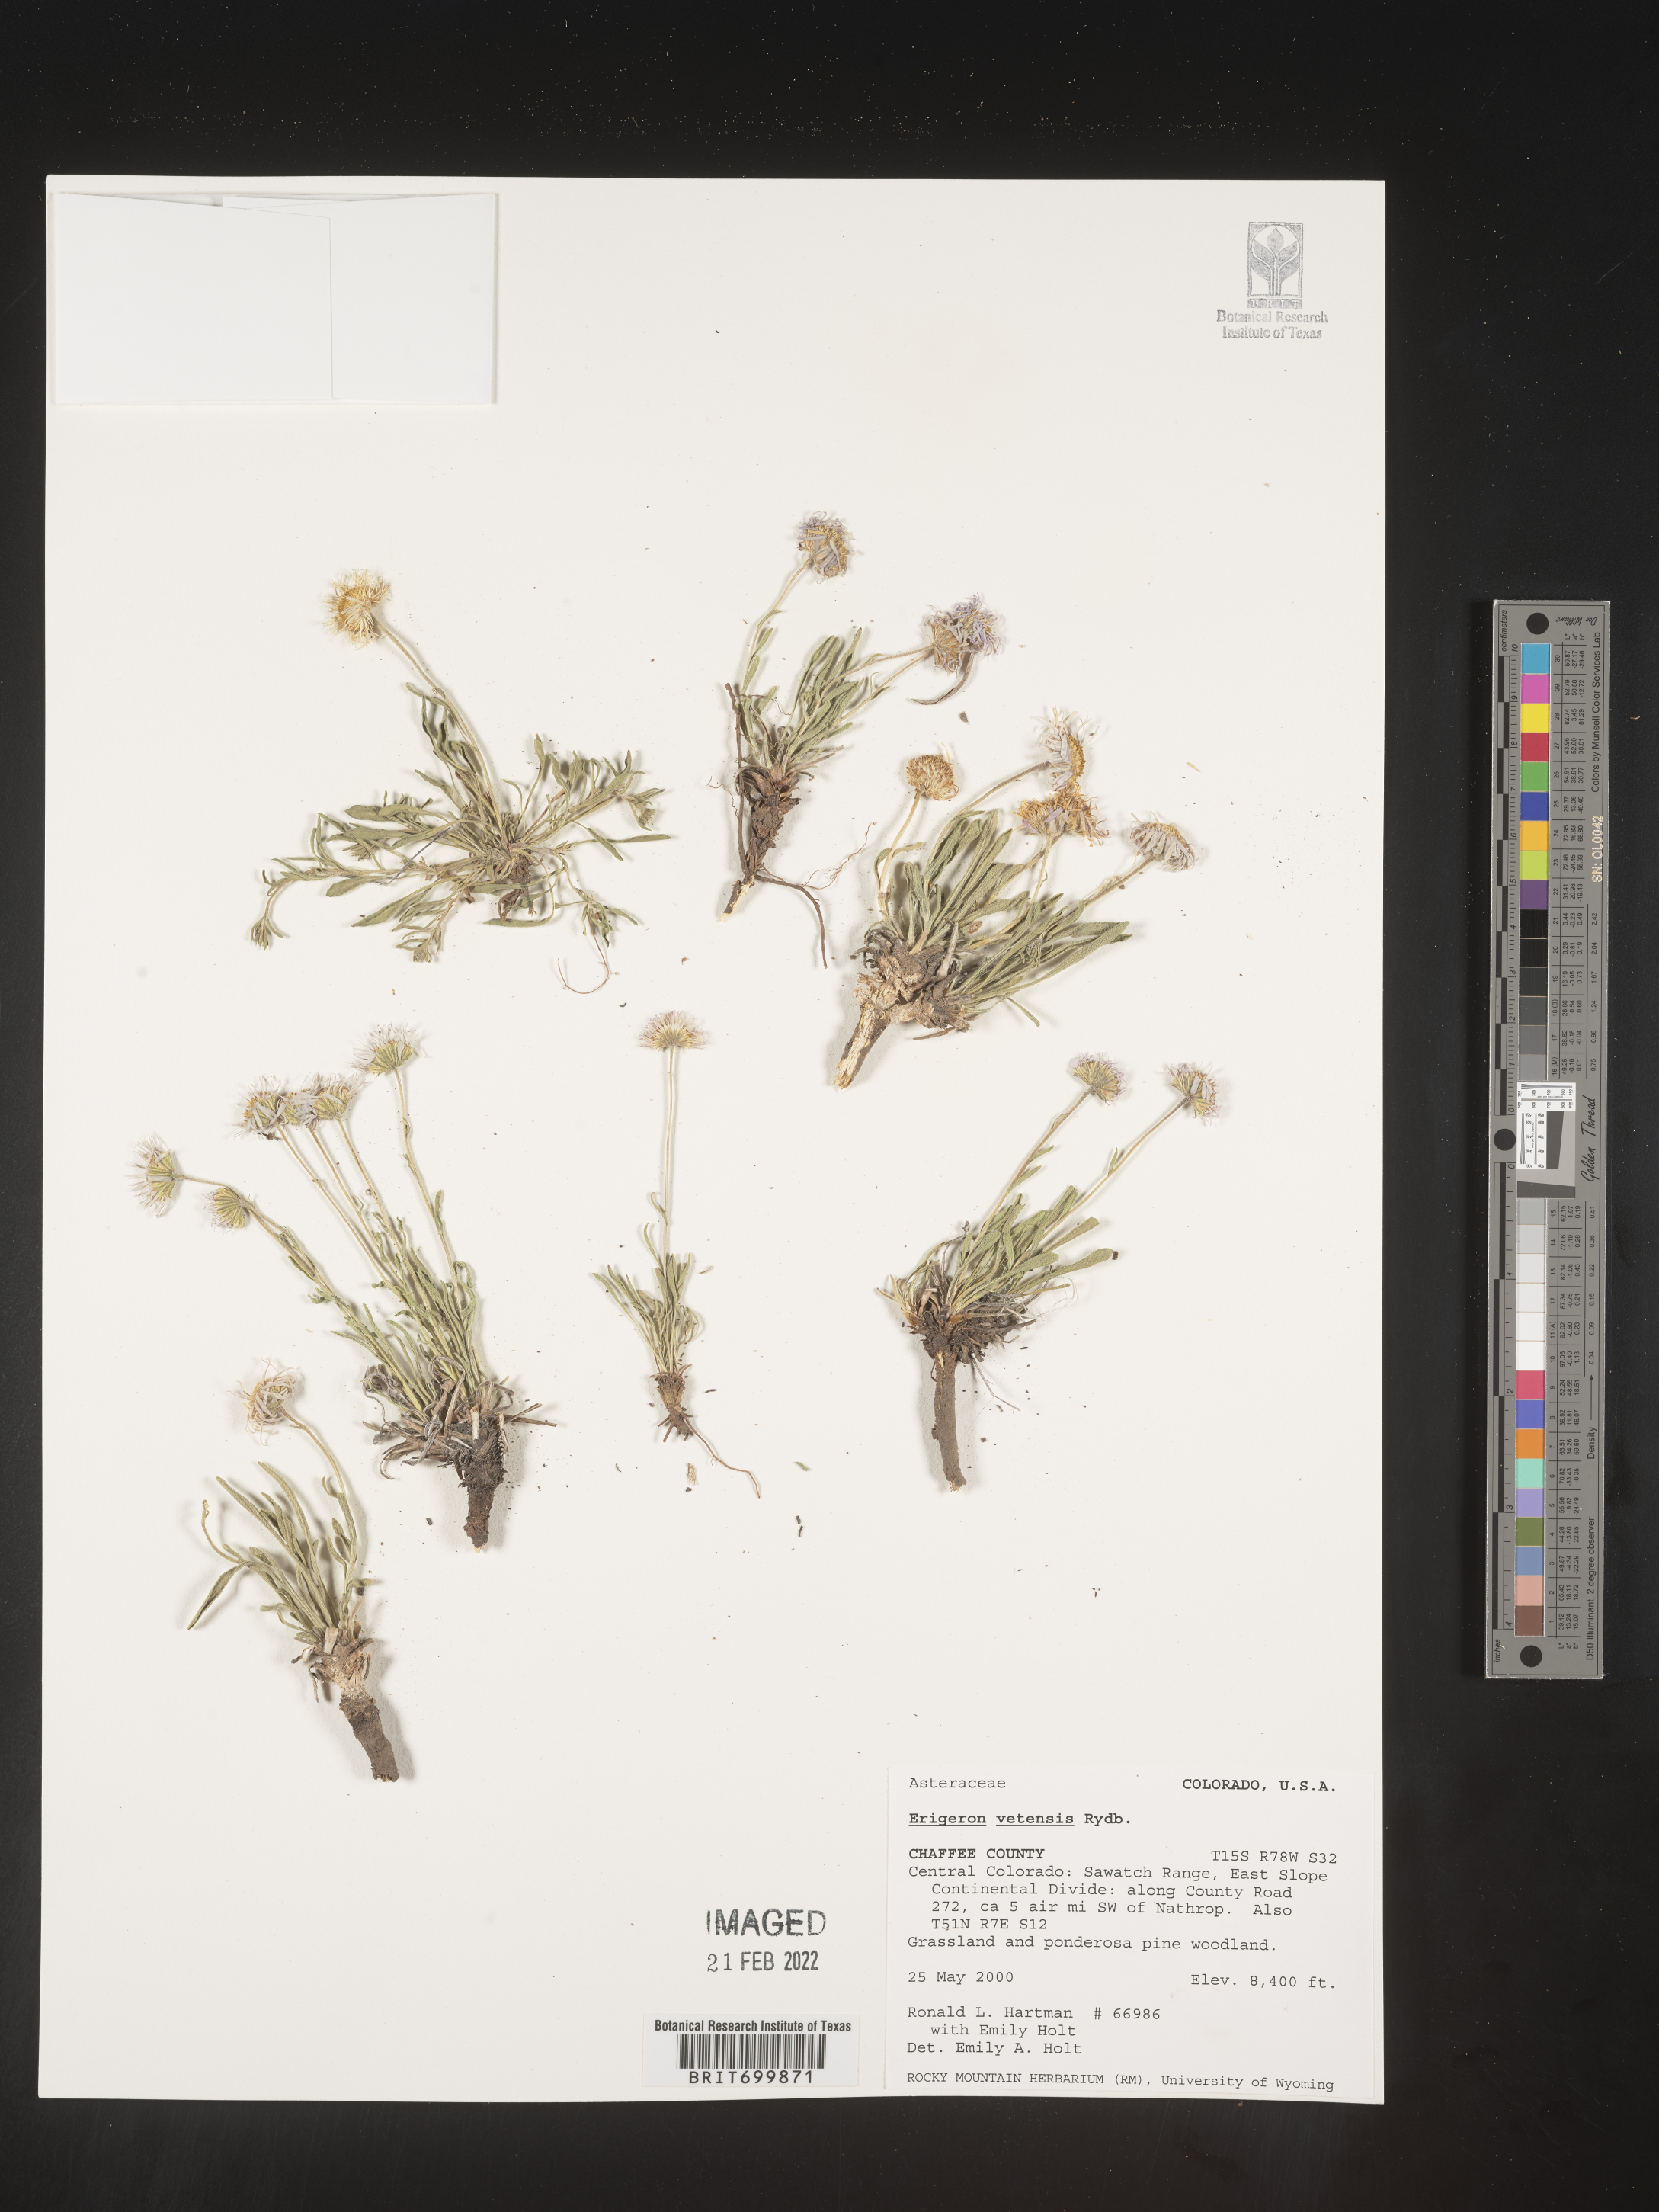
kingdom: Plantae
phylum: Tracheophyta
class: Magnoliopsida
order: Asterales
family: Asteraceae
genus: Erigeron
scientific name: Erigeron vetensis
